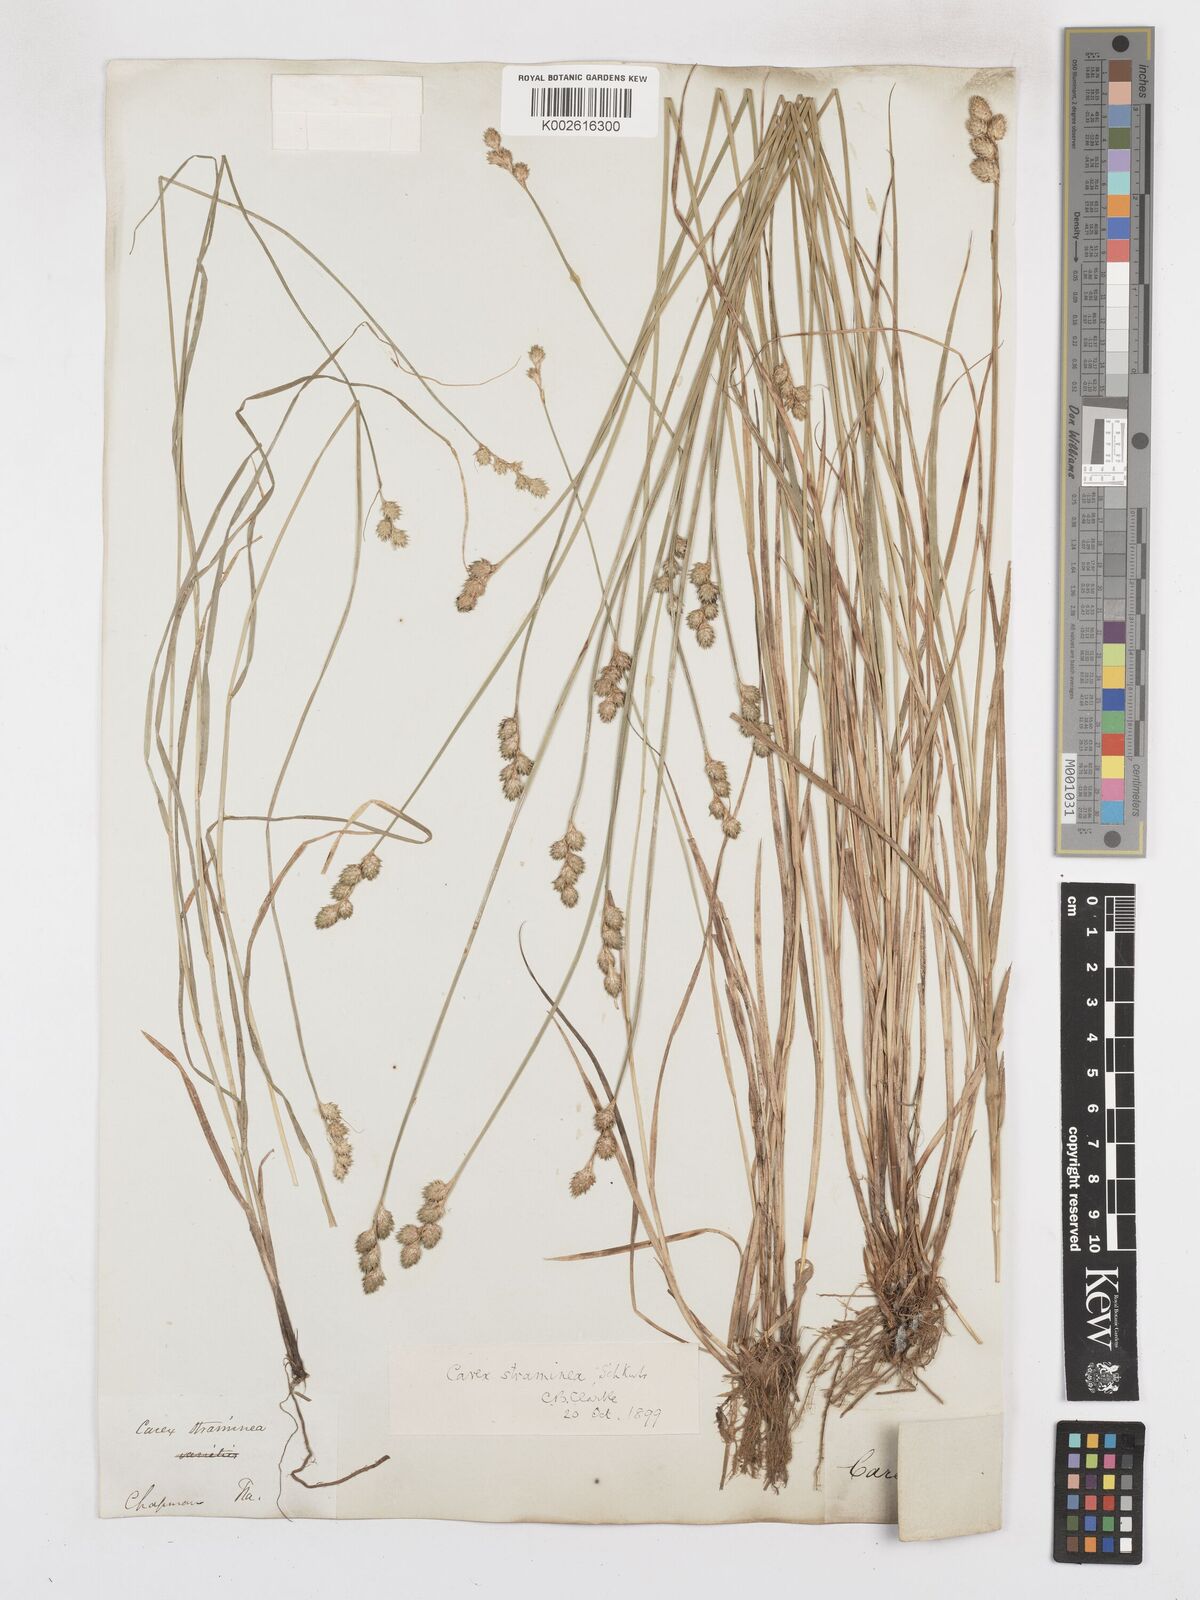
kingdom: Plantae
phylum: Tracheophyta
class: Liliopsida
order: Poales
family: Cyperaceae
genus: Carex
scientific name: Carex albolutescens
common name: Freenish white sedge
